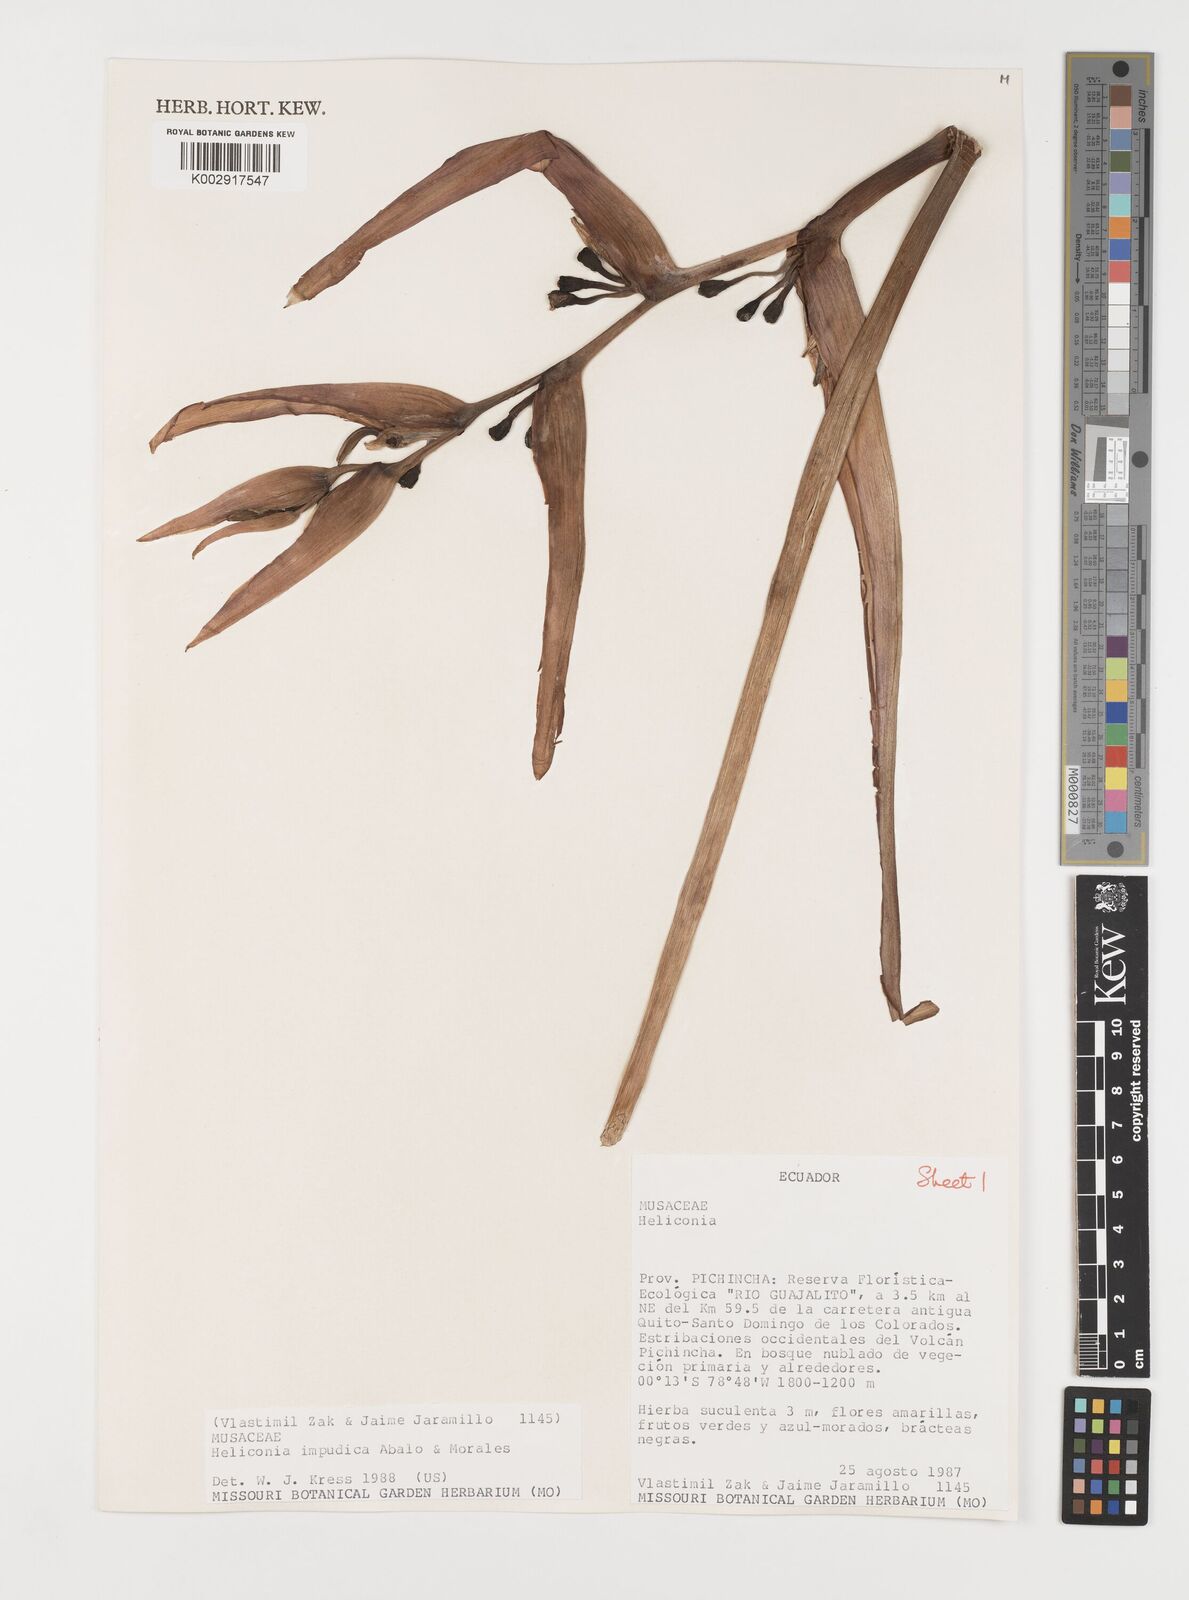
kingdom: Plantae
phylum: Tracheophyta
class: Liliopsida
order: Zingiberales
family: Heliconiaceae
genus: Heliconia
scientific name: Heliconia impudica
